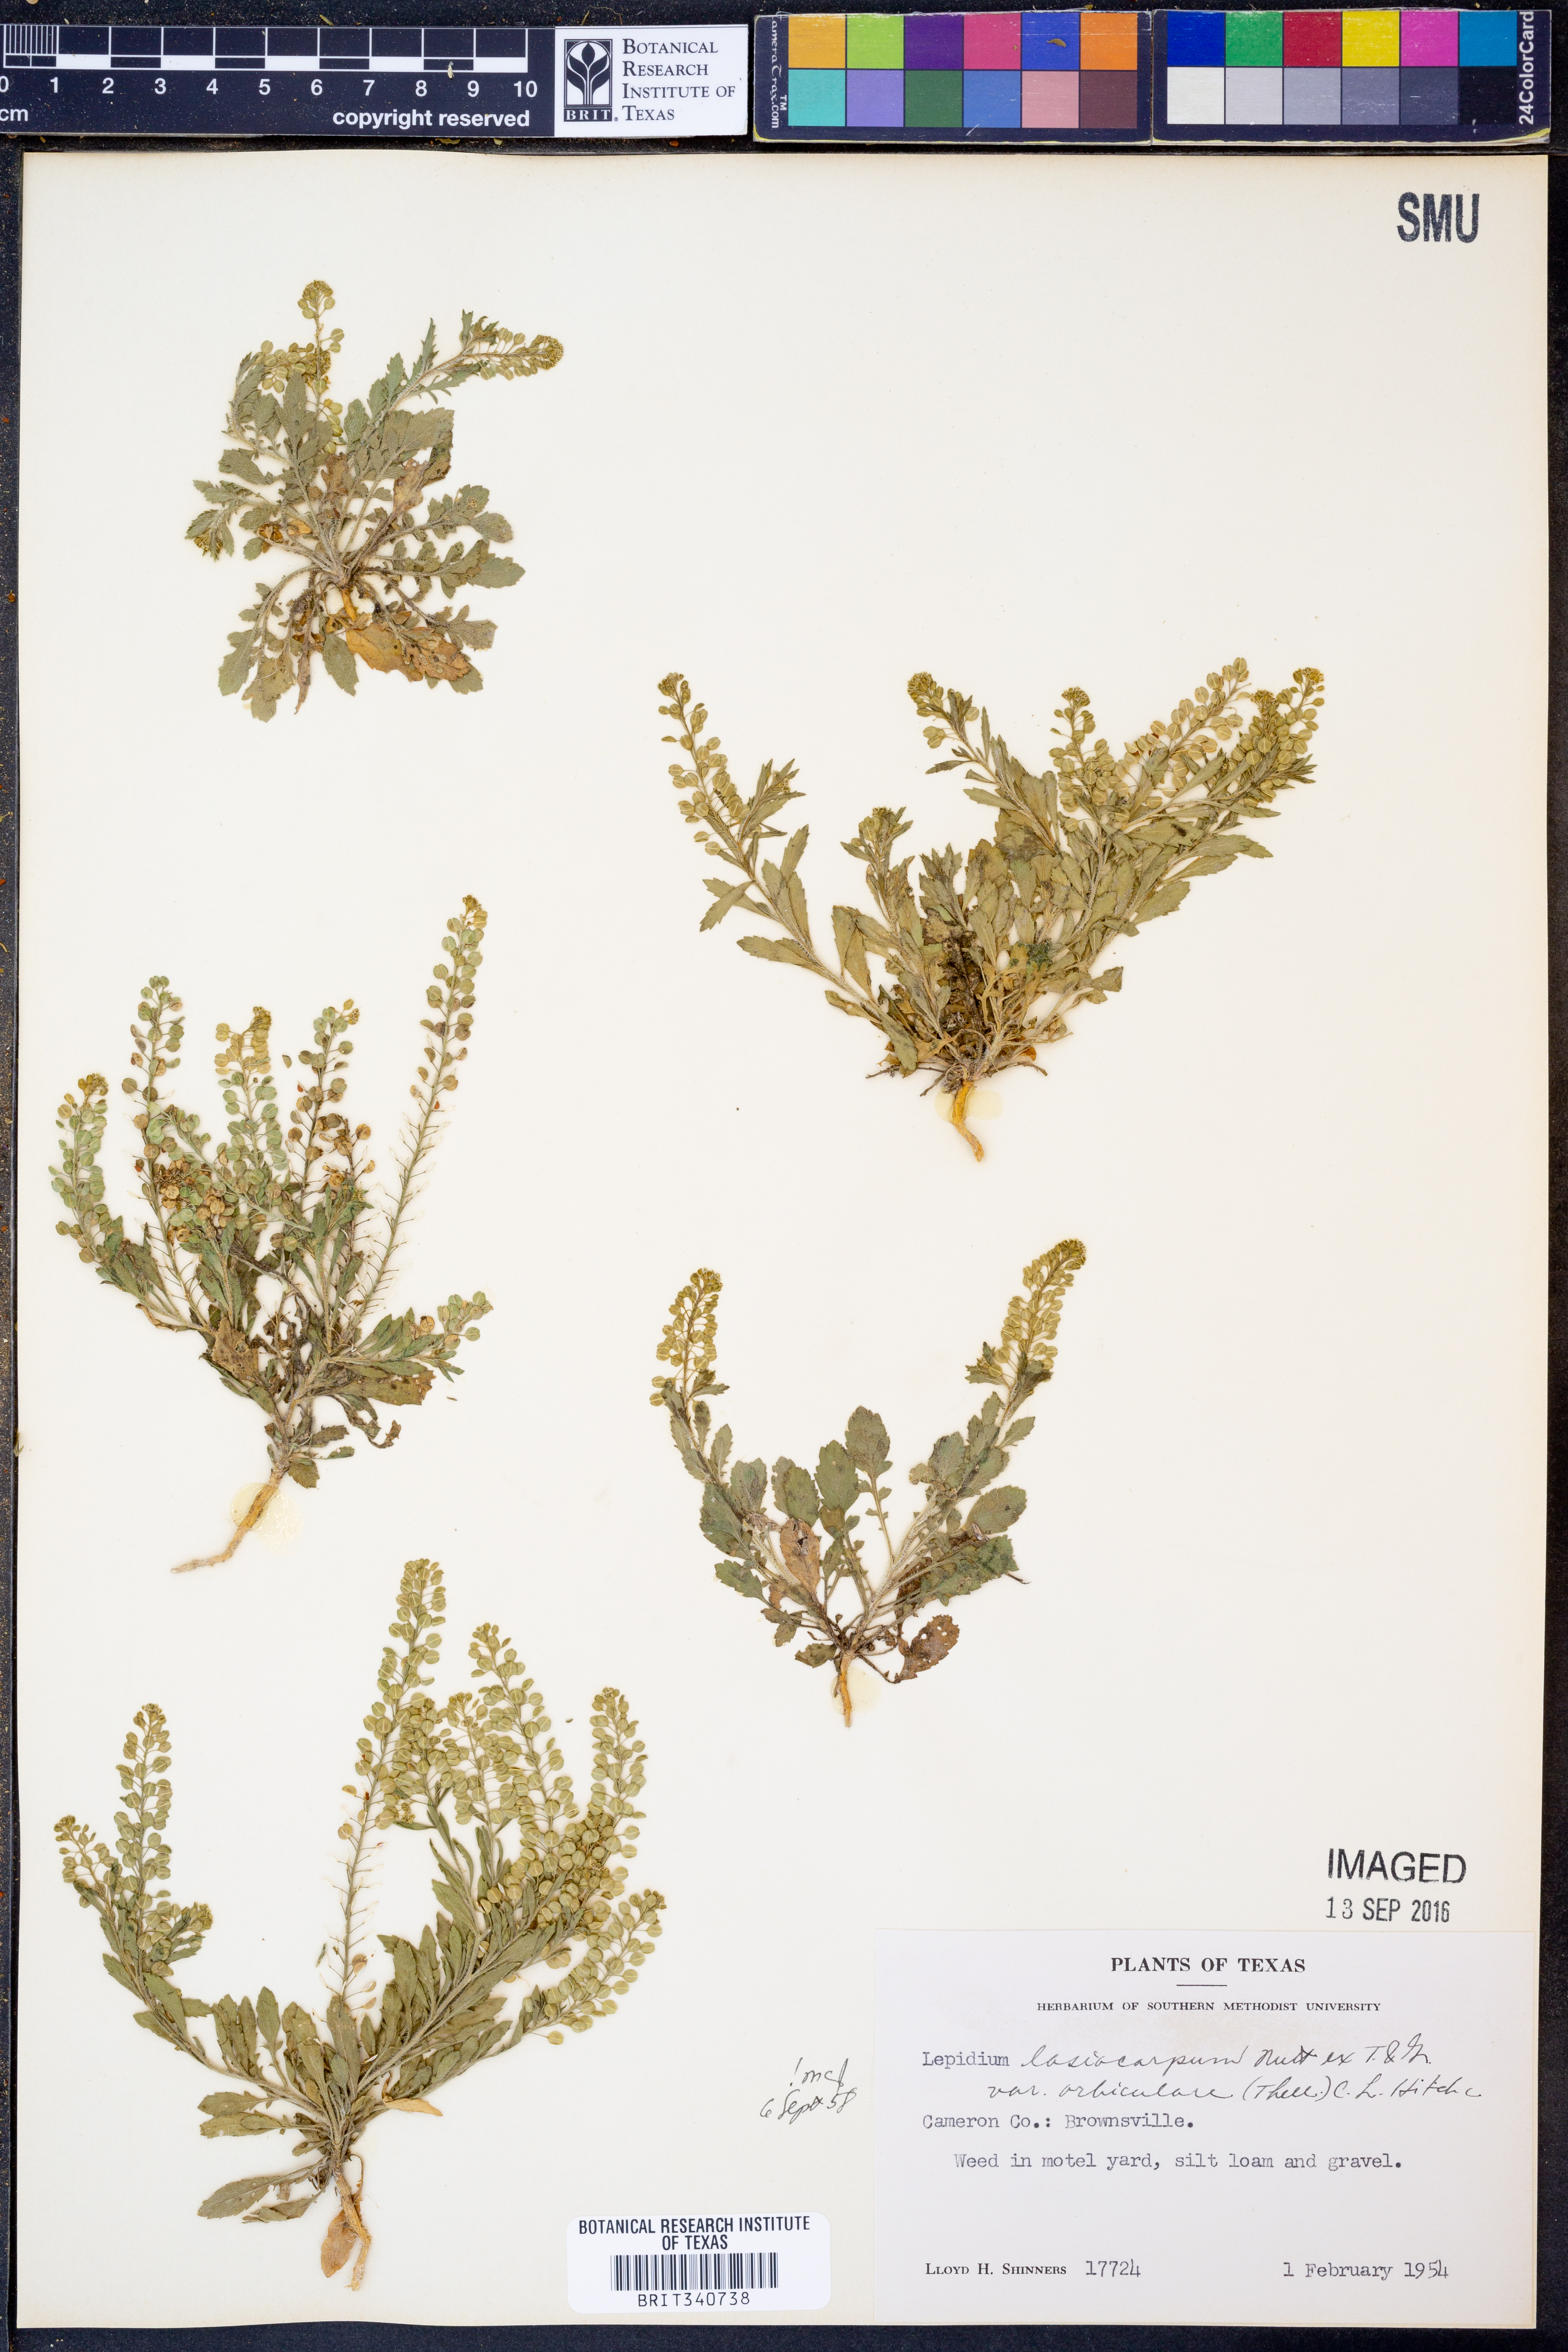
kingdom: Plantae
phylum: Tracheophyta
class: Magnoliopsida
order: Brassicales
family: Brassicaceae
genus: Lepidium
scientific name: Lepidium austrinum
